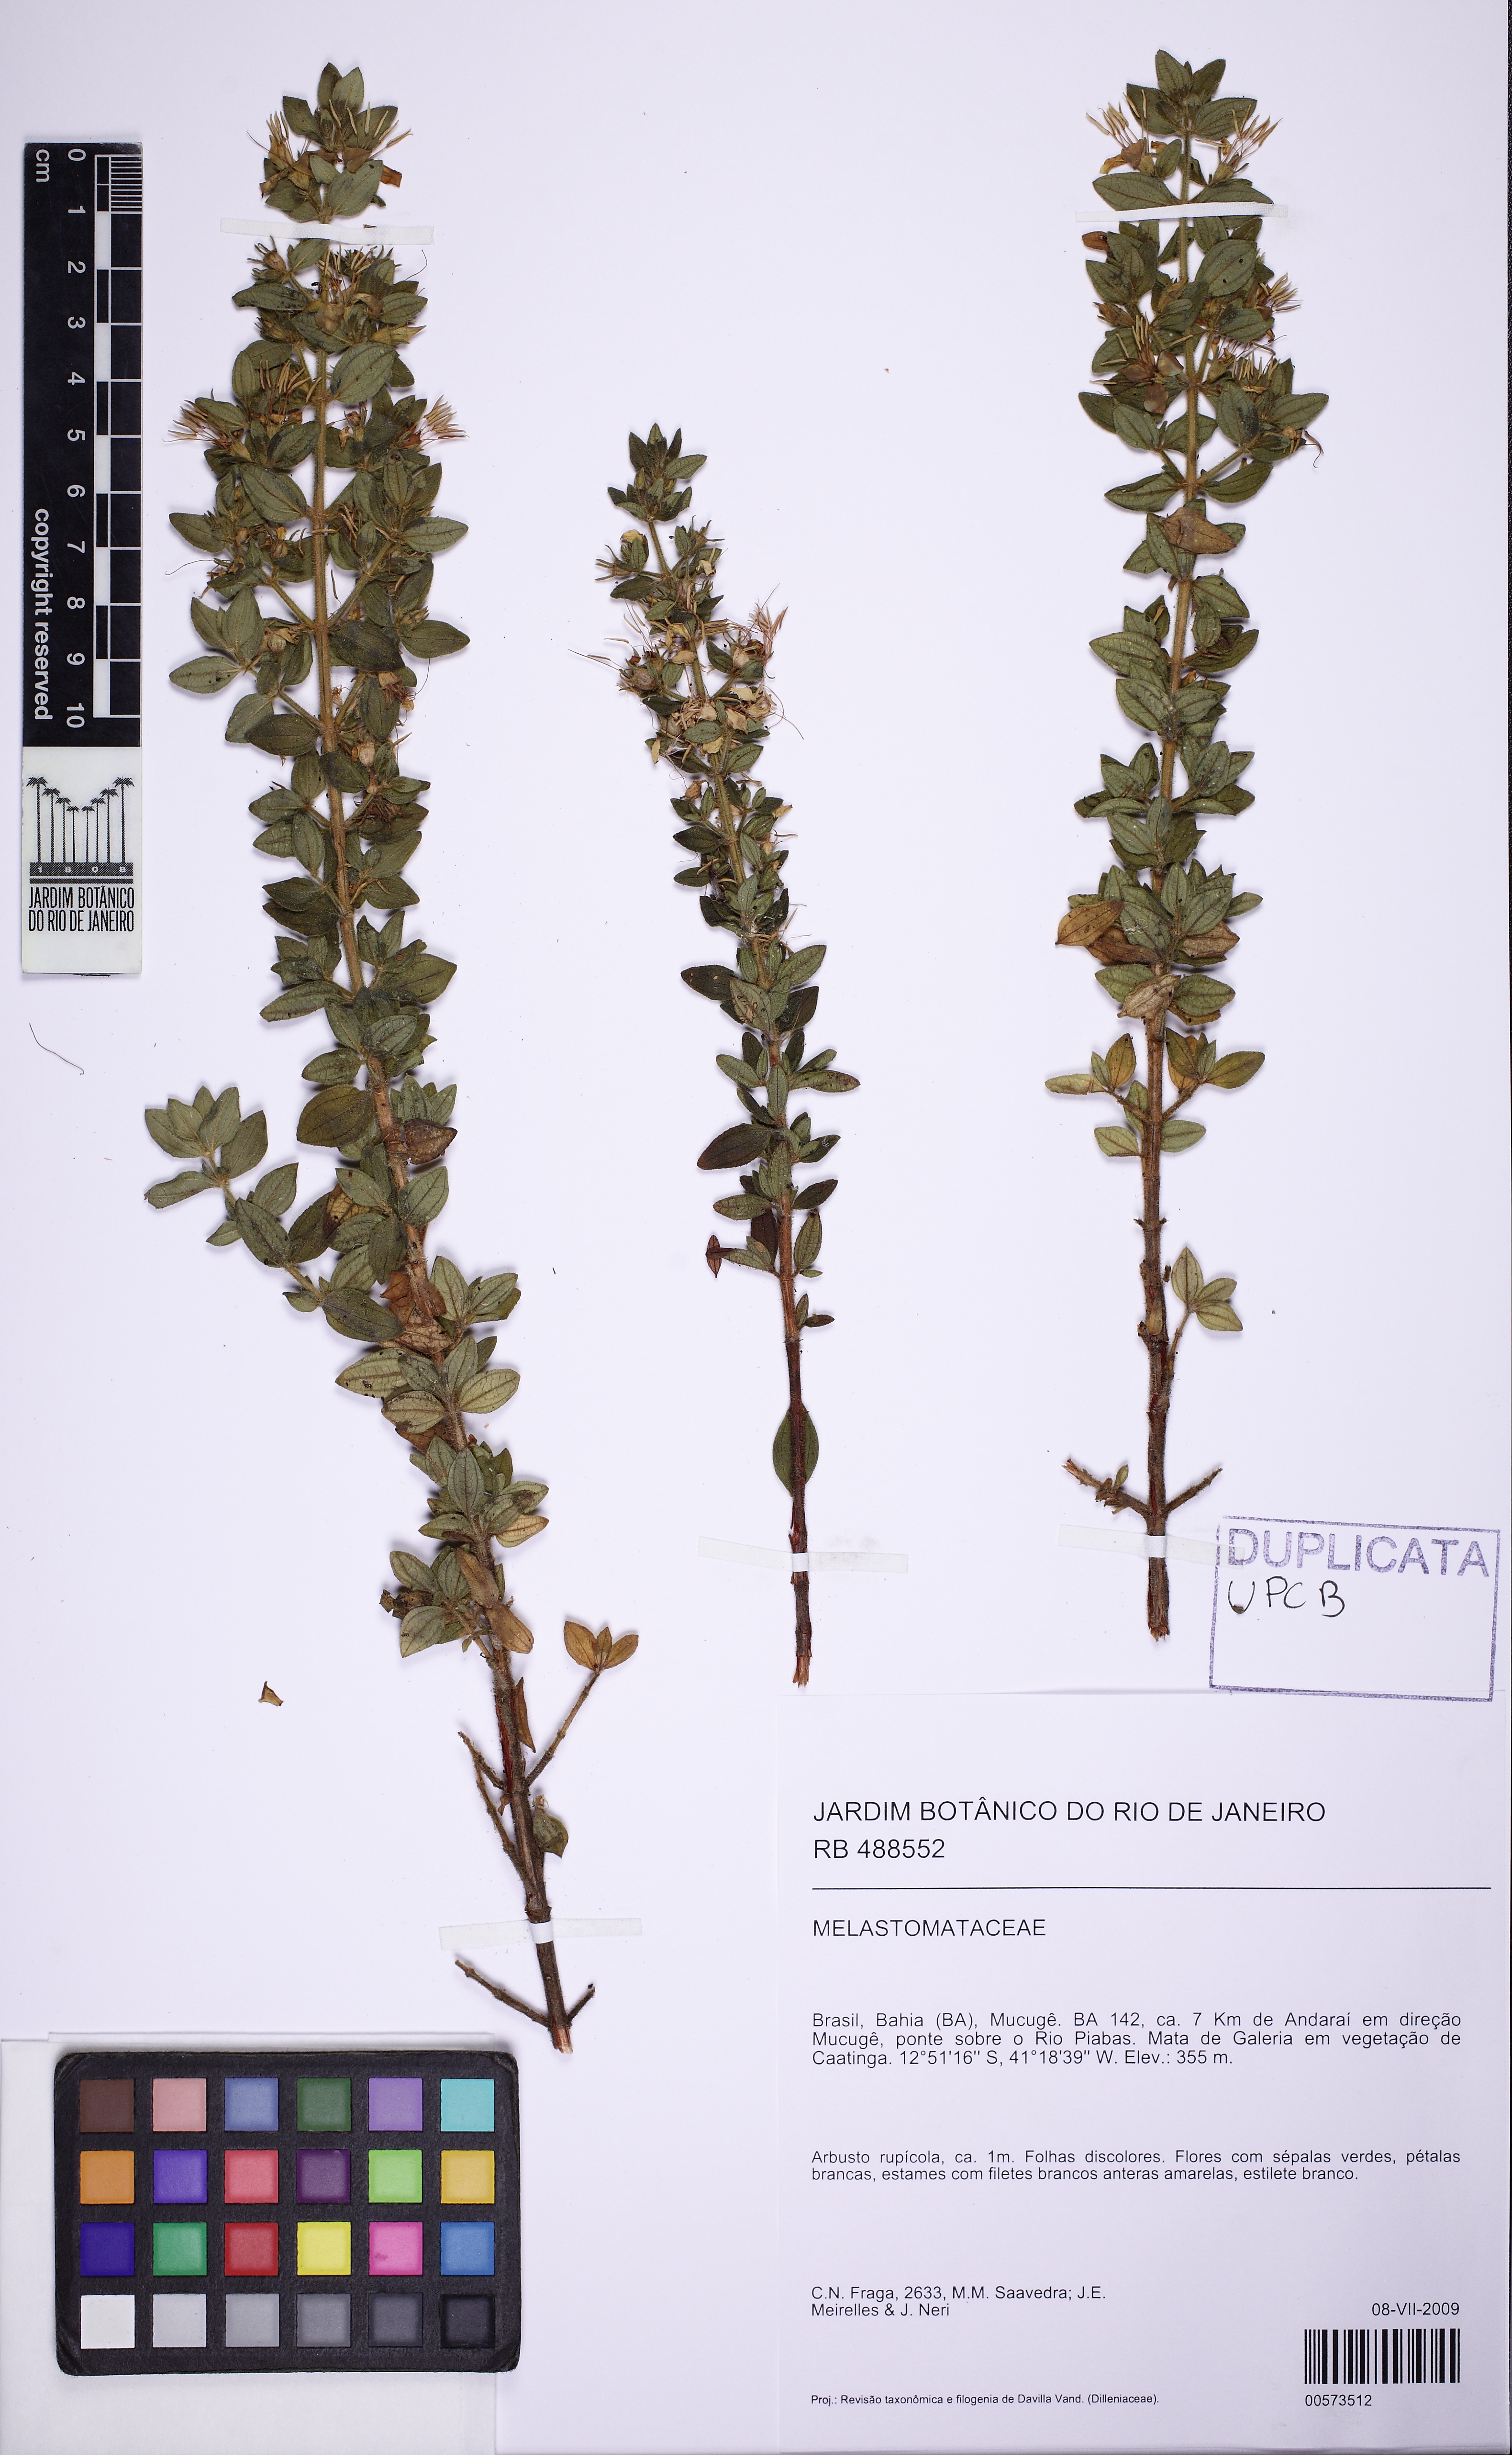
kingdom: Plantae
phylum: Tracheophyta
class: Magnoliopsida
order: Myrtales
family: Melastomataceae
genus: Marcetia
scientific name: Marcetia mucugensis
